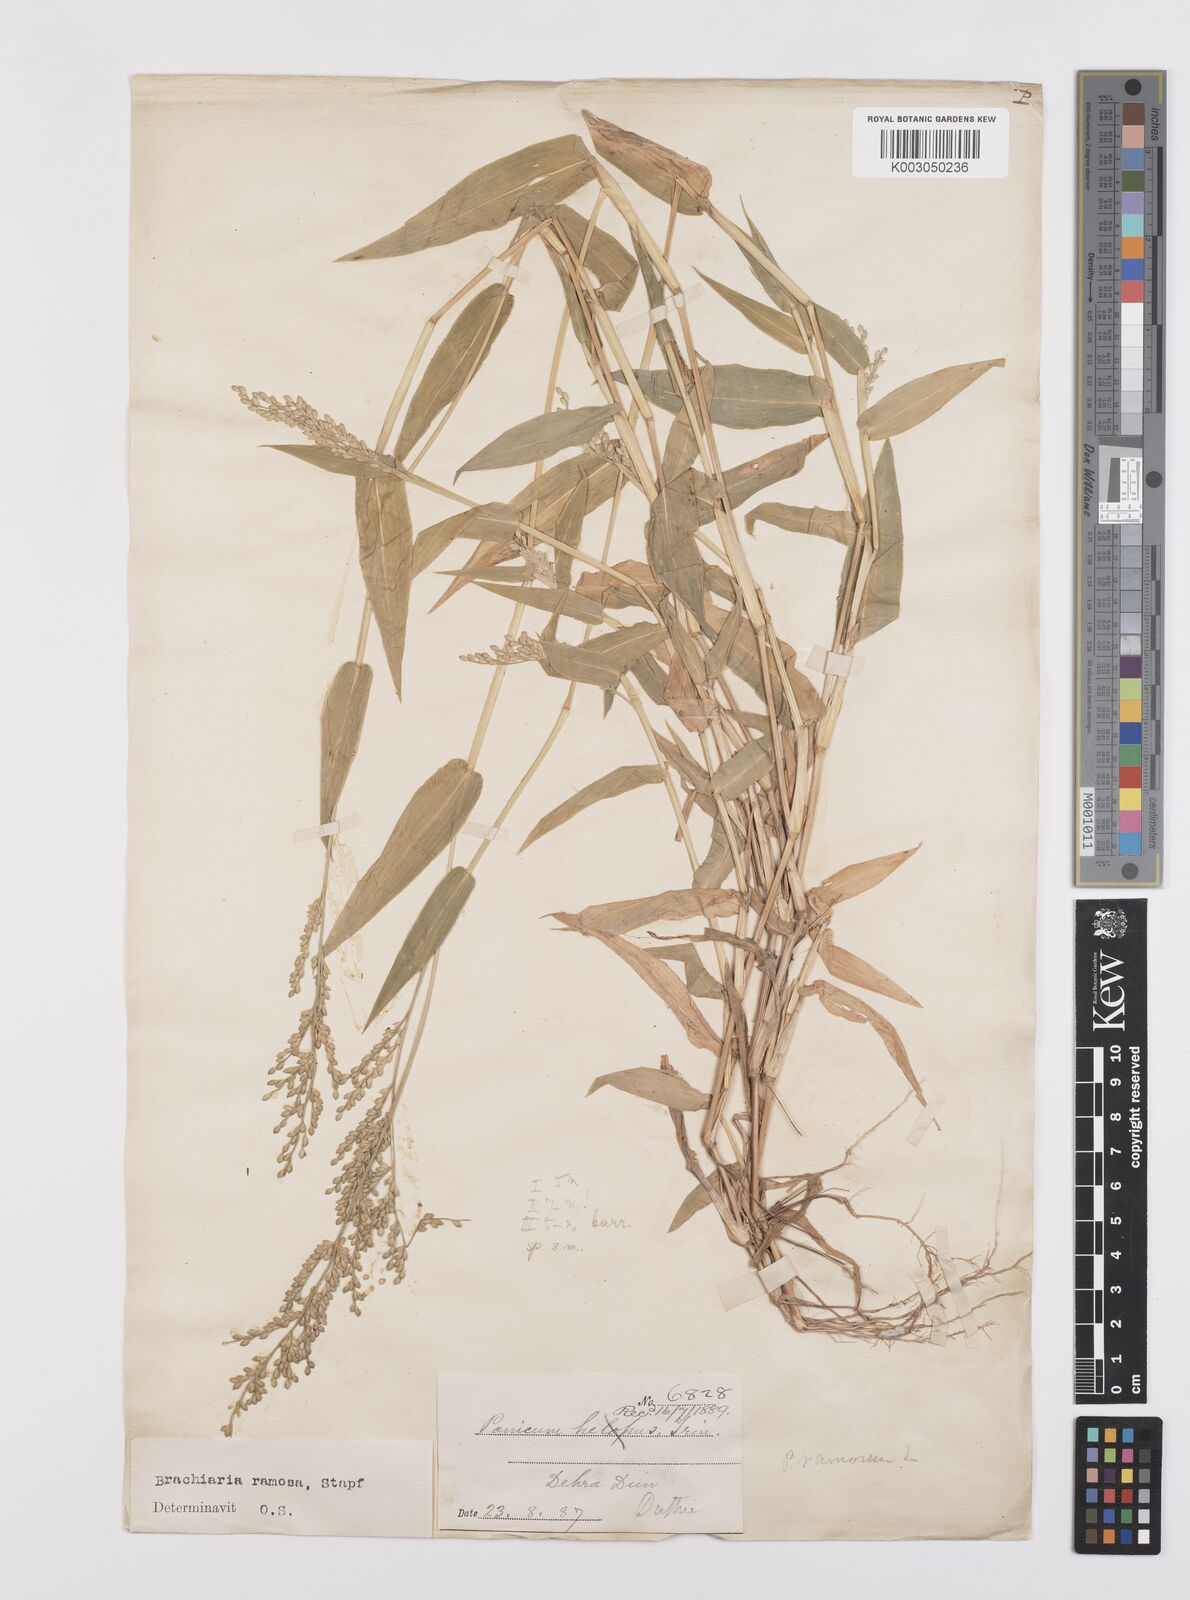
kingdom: Plantae
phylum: Tracheophyta
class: Liliopsida
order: Poales
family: Poaceae
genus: Urochloa
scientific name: Urochloa ramosa
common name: Browntop millet
